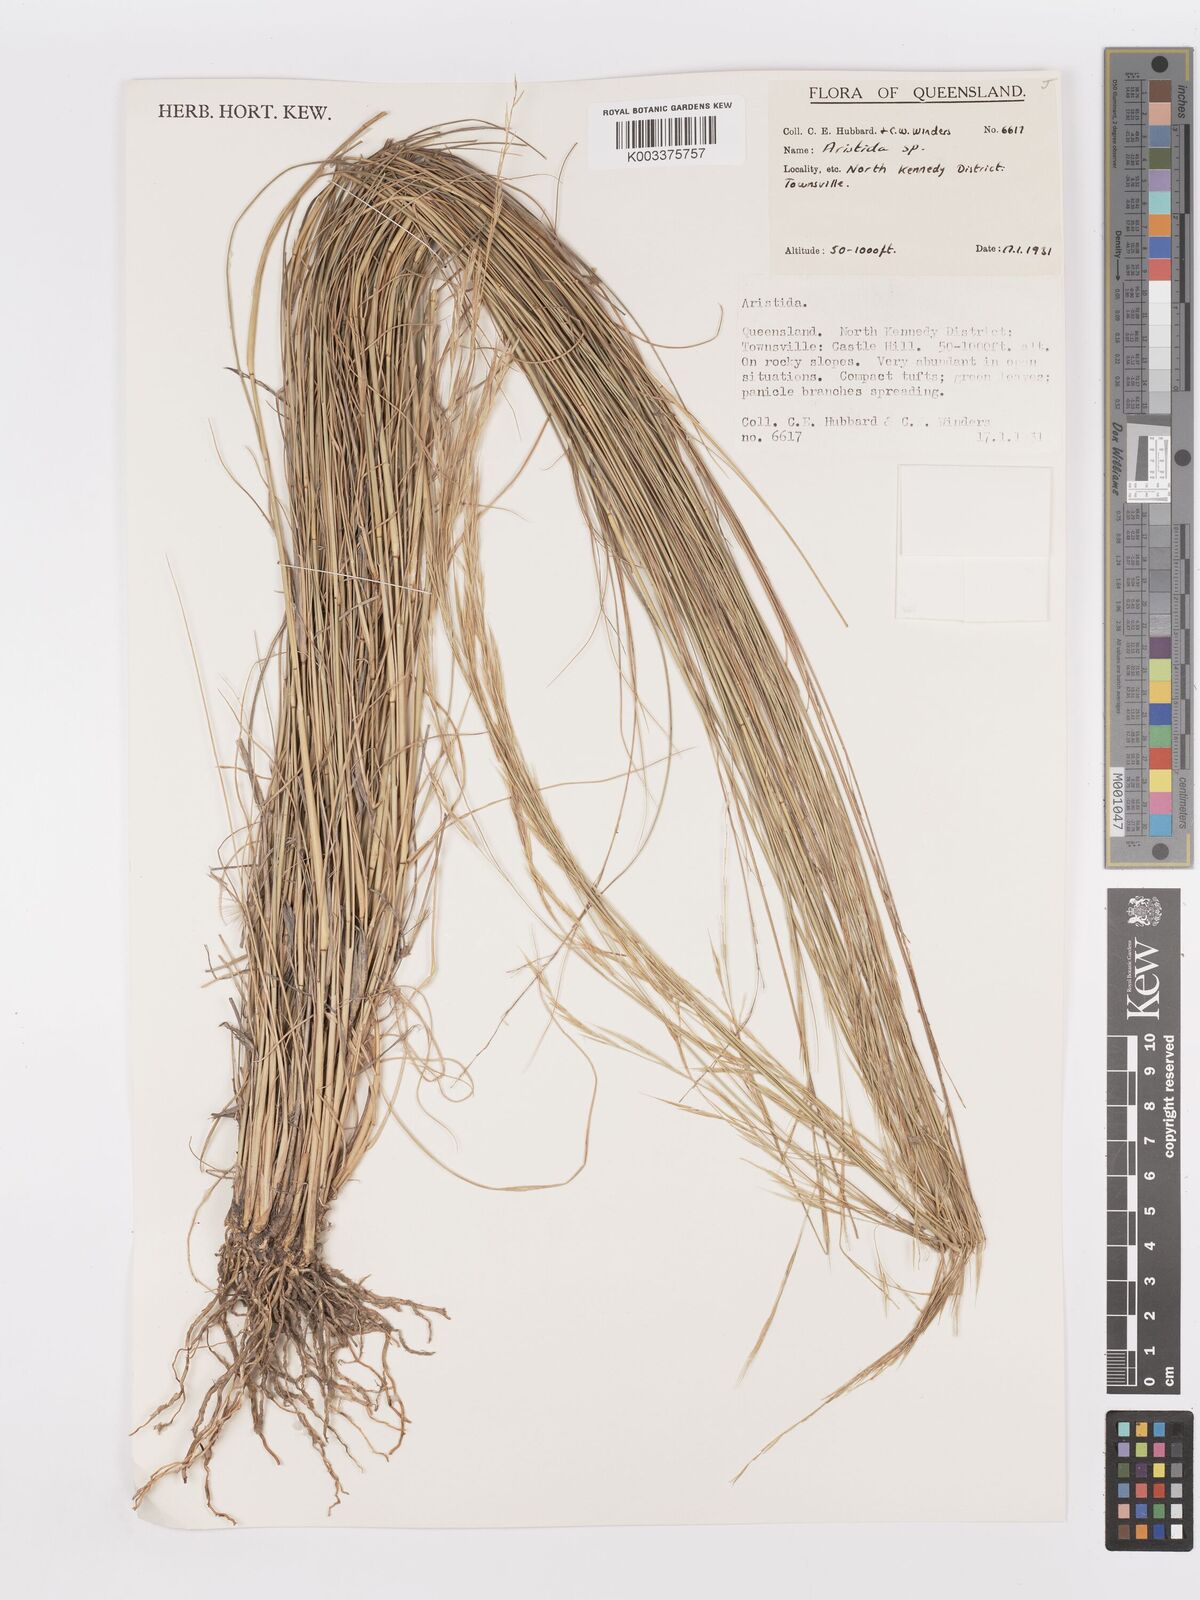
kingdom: Plantae
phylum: Tracheophyta
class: Liliopsida
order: Poales
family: Poaceae
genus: Aristida
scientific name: Aristida
